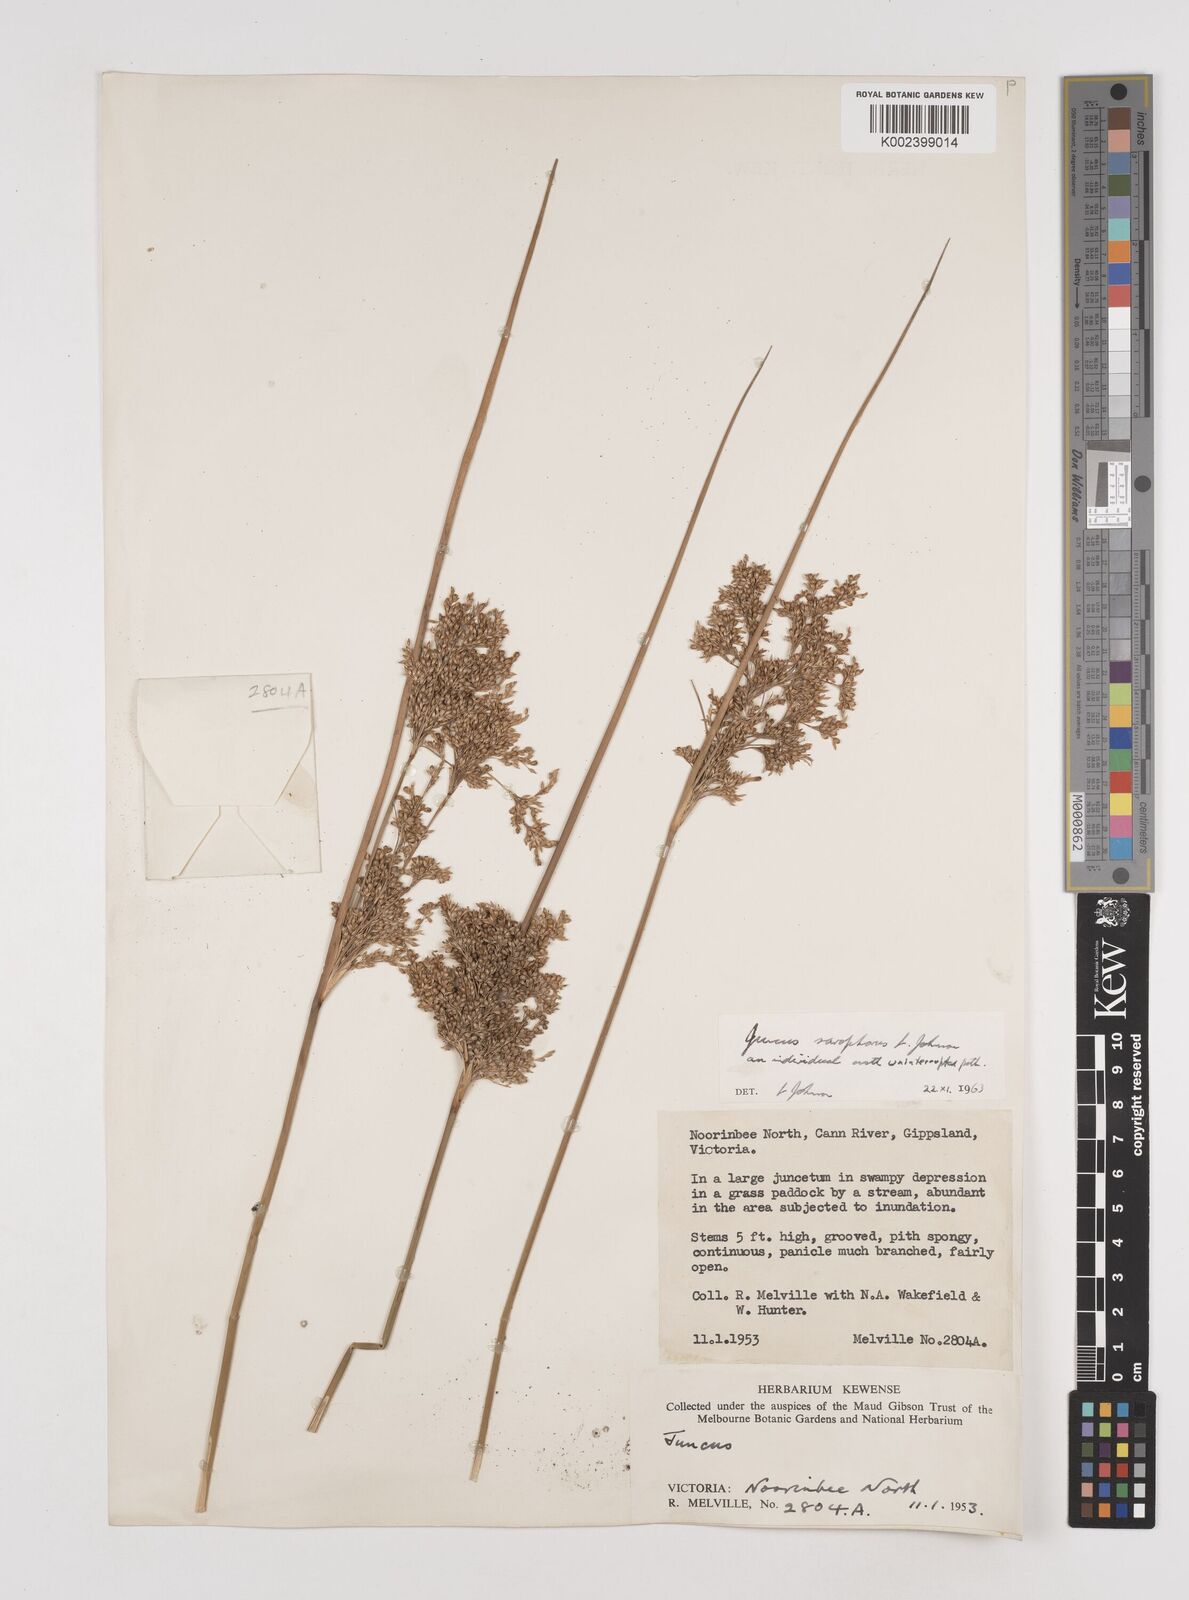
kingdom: Plantae
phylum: Tracheophyta
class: Liliopsida
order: Poales
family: Juncaceae
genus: Juncus
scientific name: Juncus sarophorus
